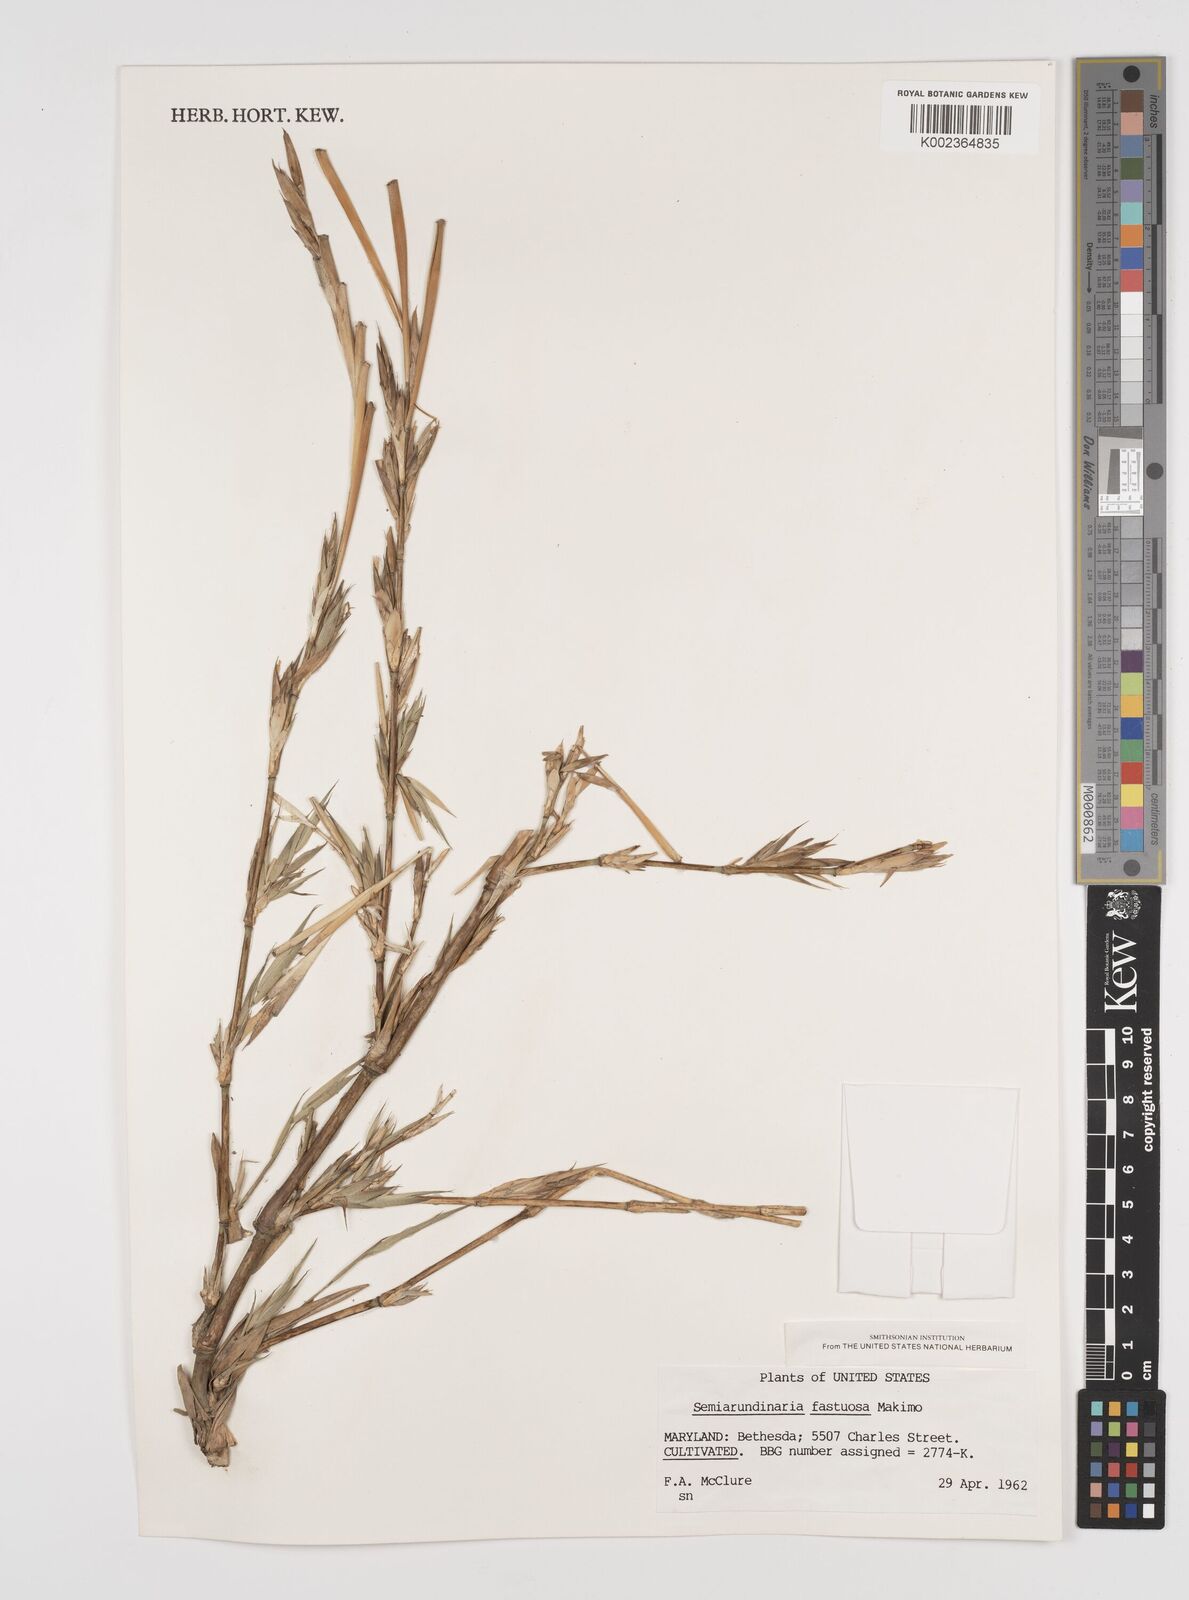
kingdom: Plantae
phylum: Tracheophyta
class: Liliopsida
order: Poales
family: Poaceae
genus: Semiarundinaria
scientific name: Semiarundinaria fastuosa
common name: Narihira bamboo
